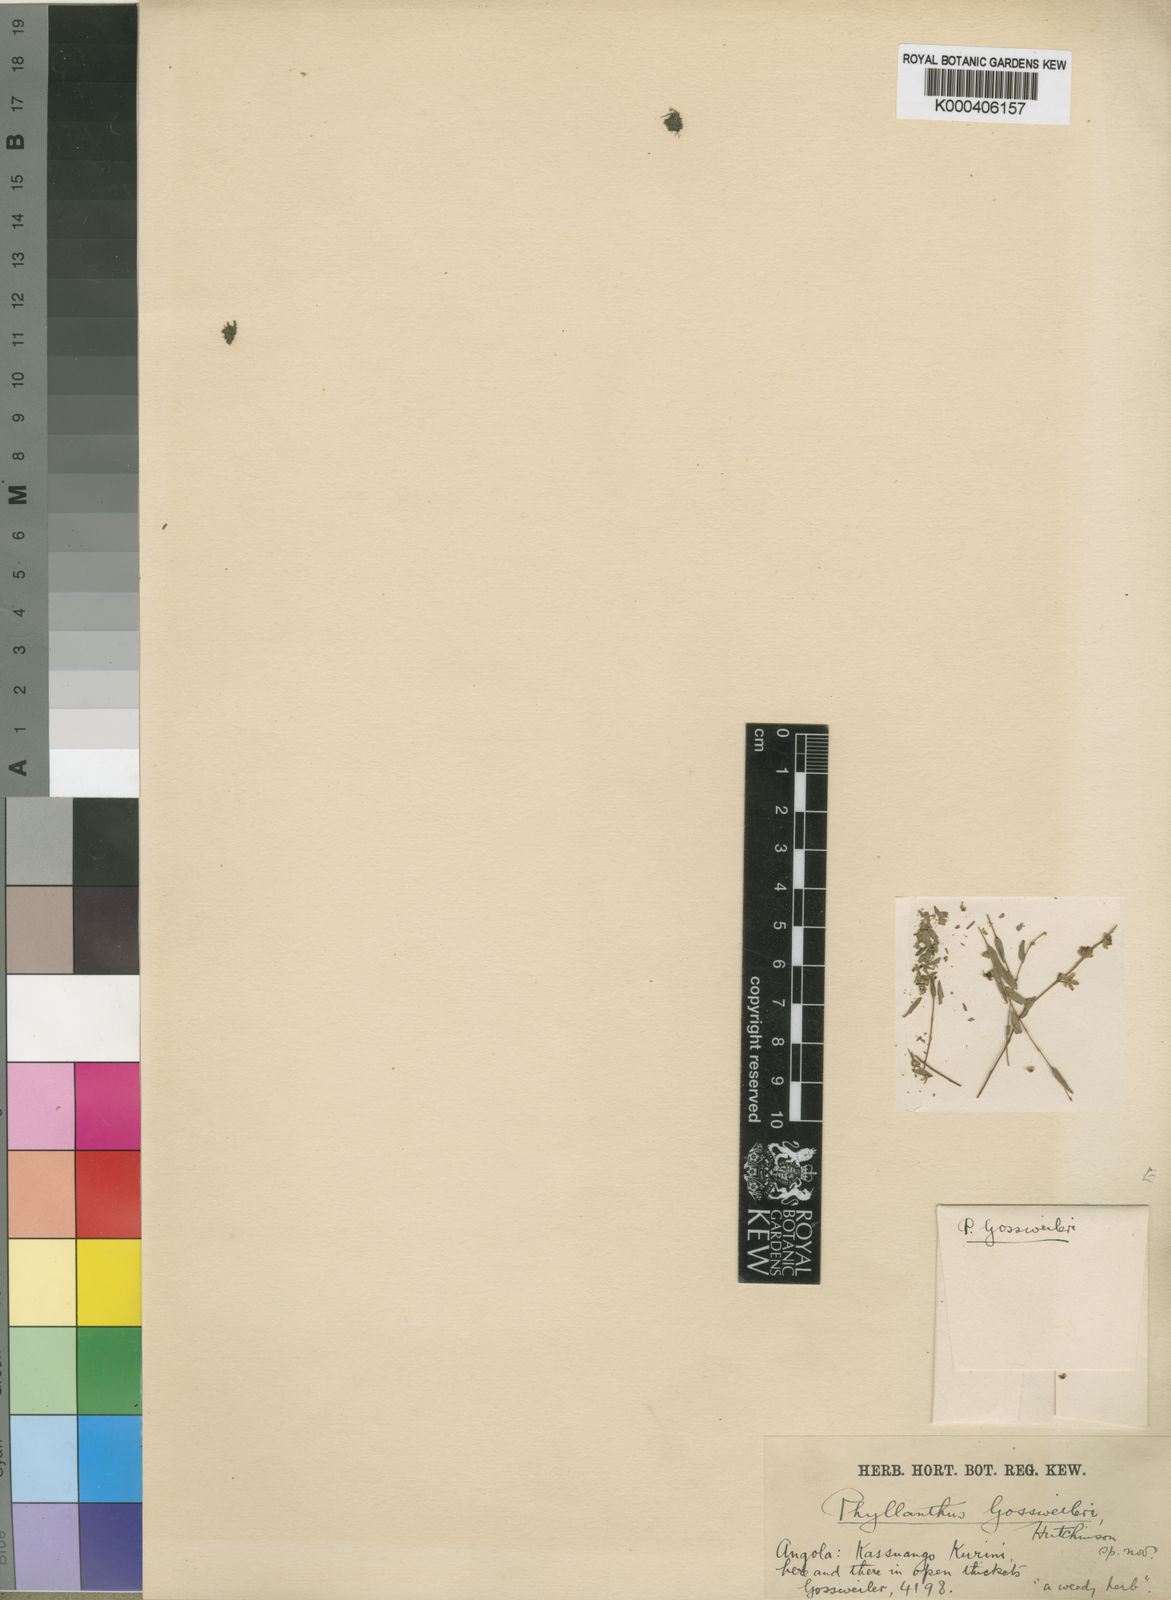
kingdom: Plantae
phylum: Tracheophyta
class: Magnoliopsida
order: Malpighiales
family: Phyllanthaceae
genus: Phyllanthus
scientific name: Phyllanthus gossweileri
